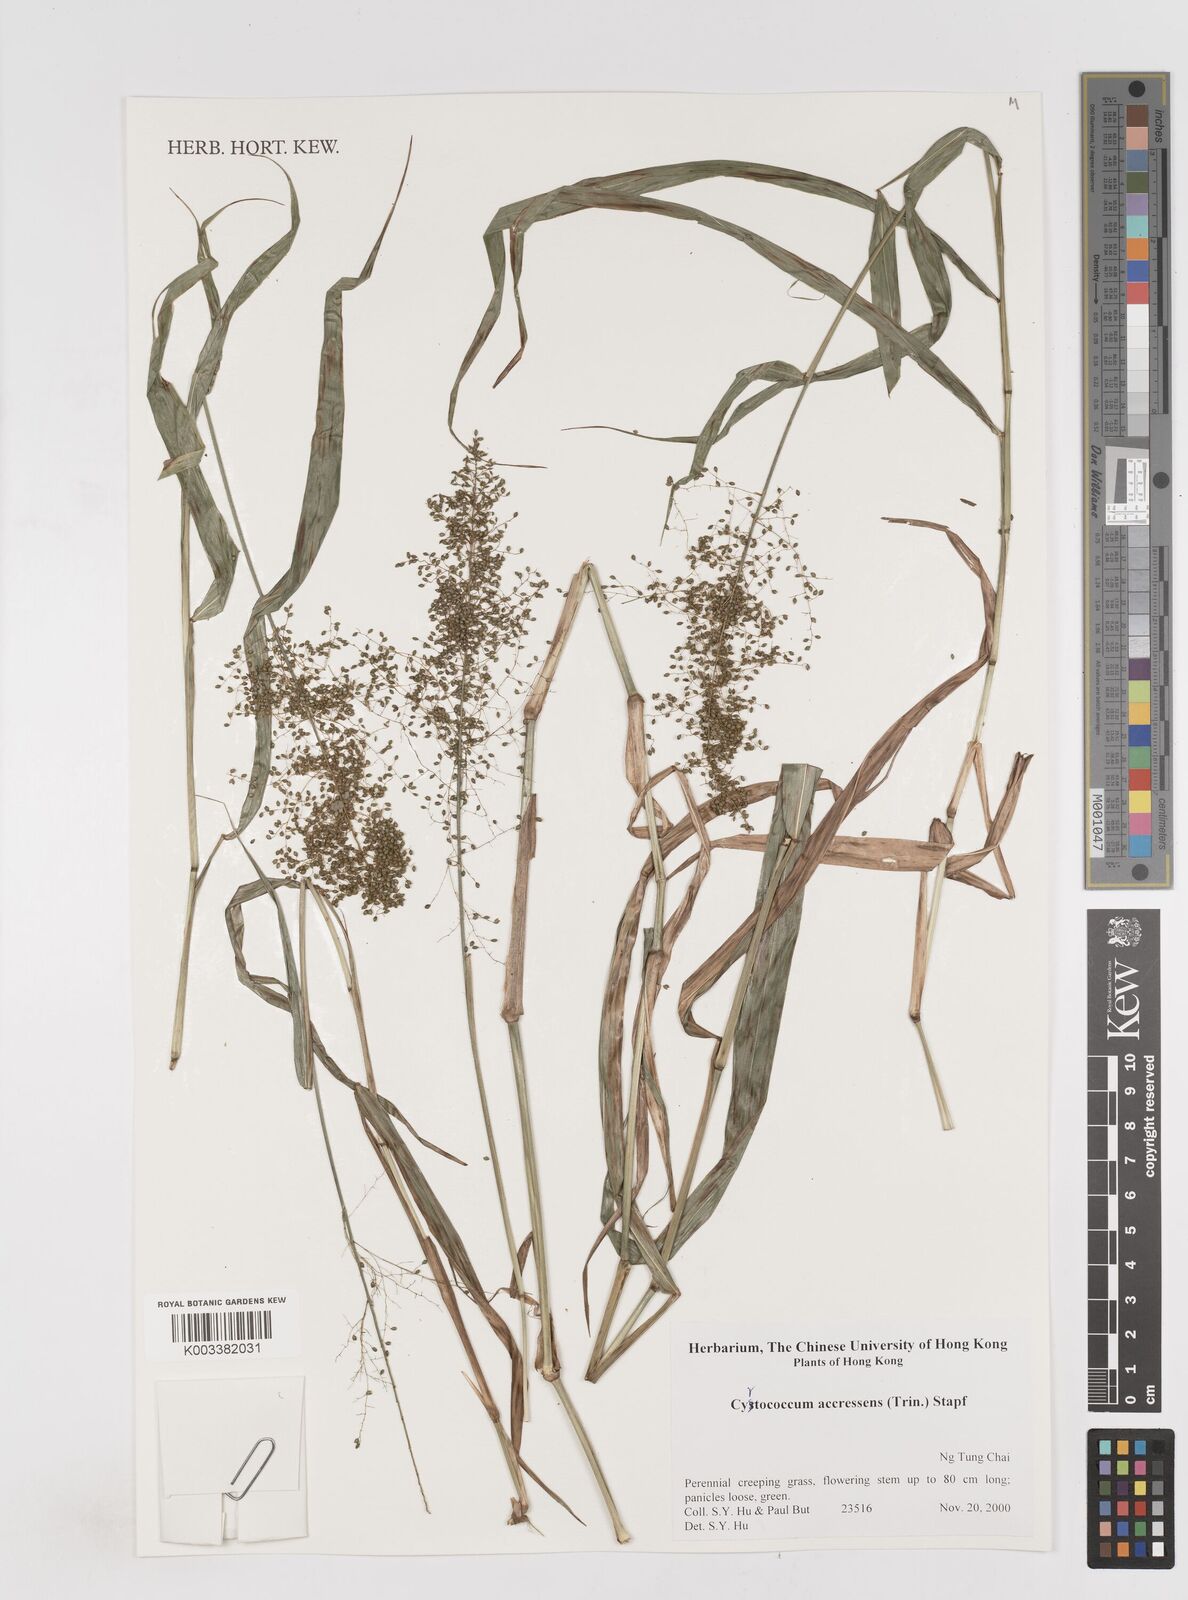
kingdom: Plantae
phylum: Tracheophyta
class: Liliopsida
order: Poales
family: Poaceae
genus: Cyrtococcum
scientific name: Cyrtococcum accrescens
